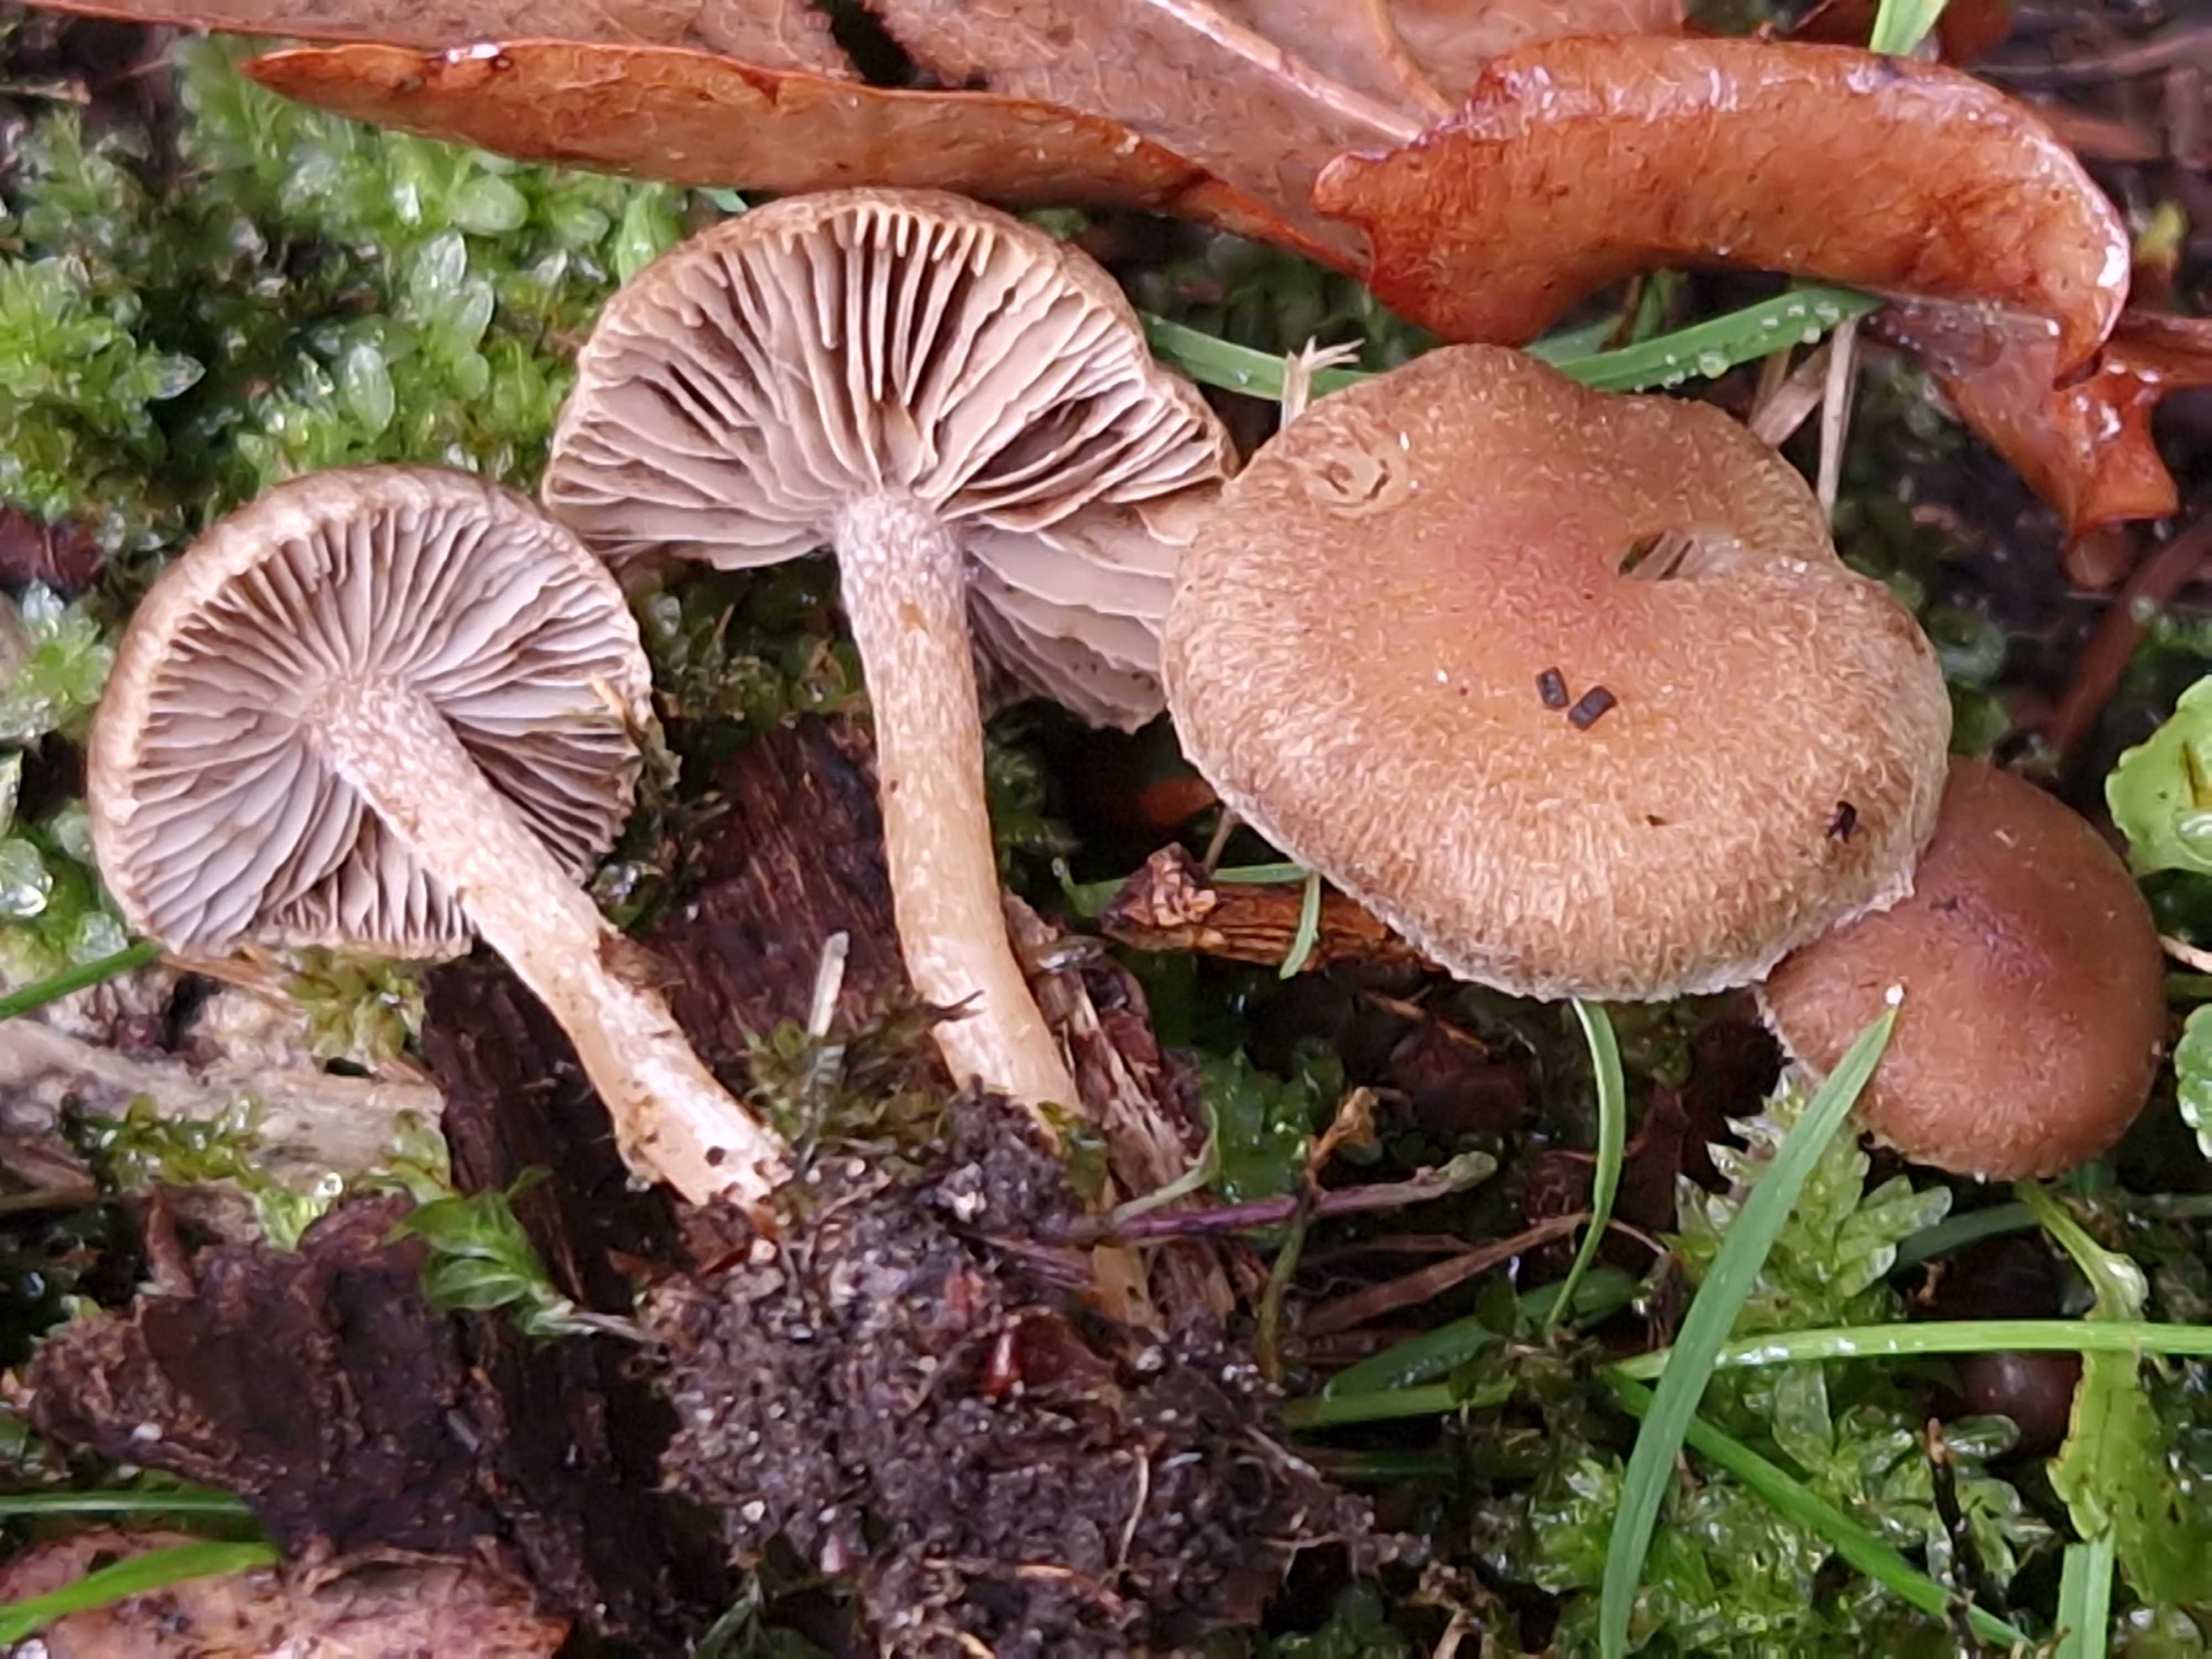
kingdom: Fungi
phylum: Basidiomycota
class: Agaricomycetes
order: Agaricales
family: Inocybaceae
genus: Inocybe
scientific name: Inocybe
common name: trævlhat
